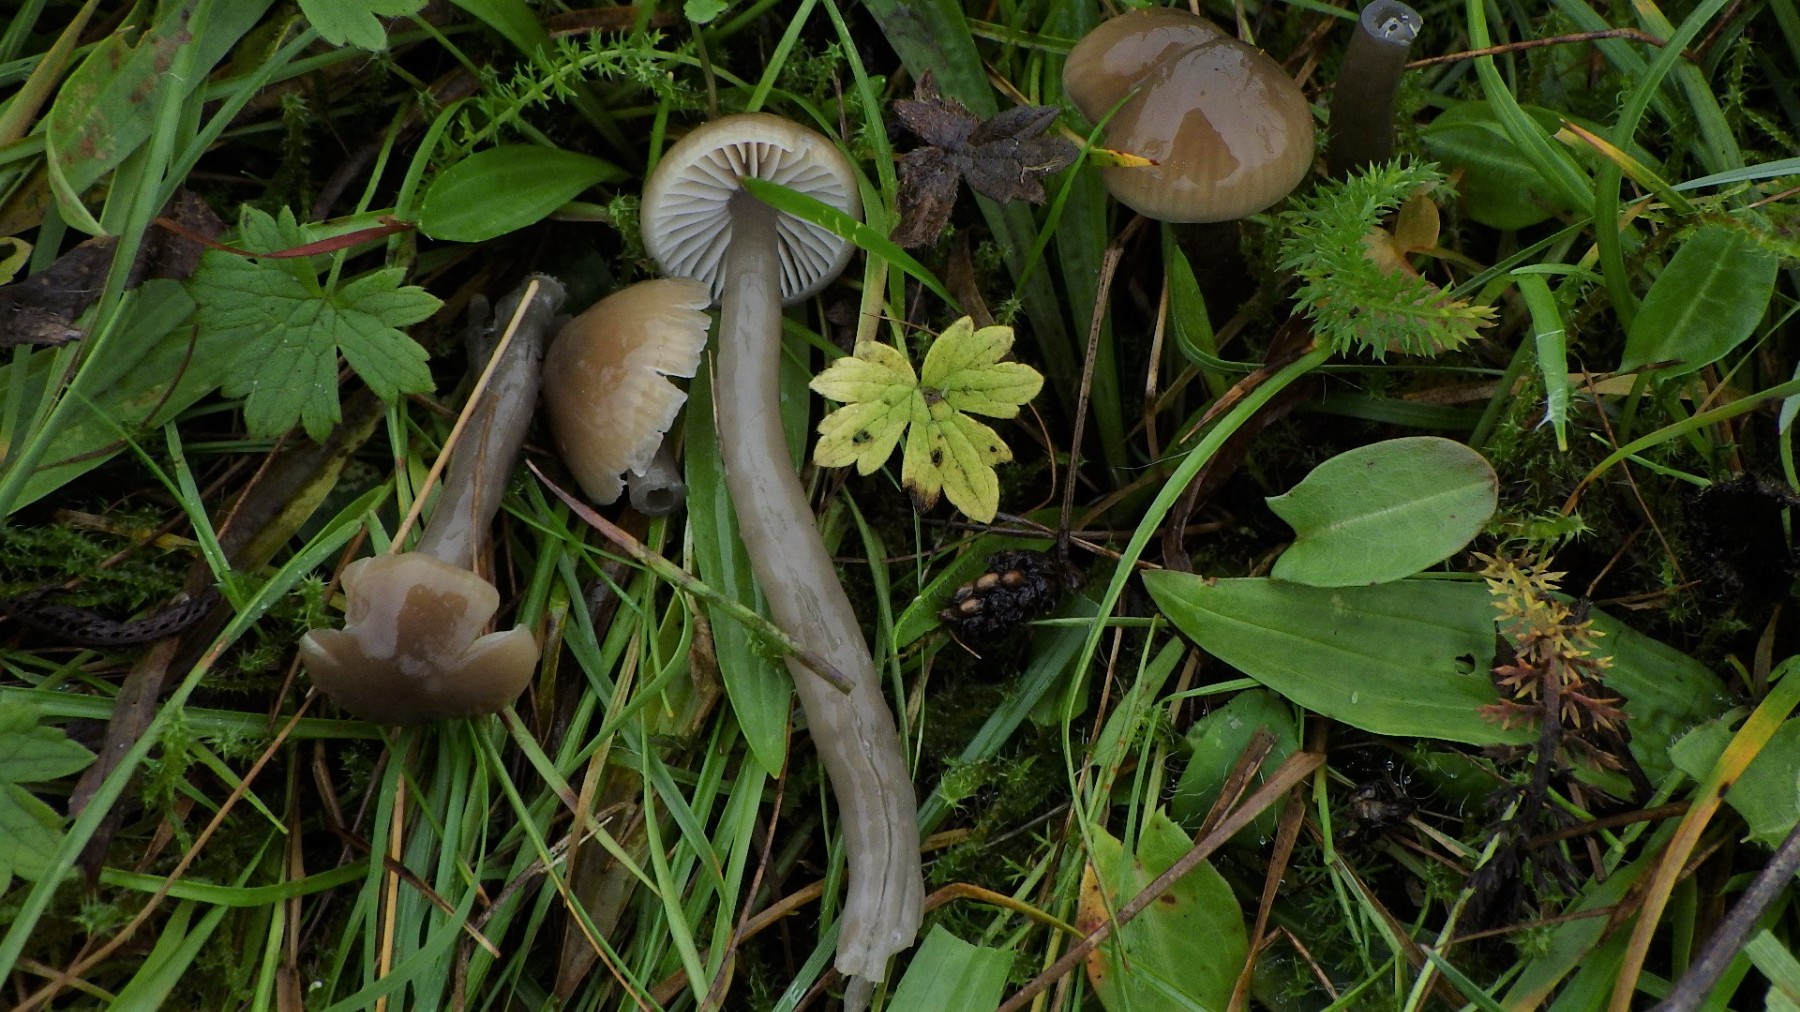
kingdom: Fungi
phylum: Basidiomycota
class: Agaricomycetes
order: Agaricales
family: Hygrophoraceae
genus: Gliophorus
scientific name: Gliophorus irrigatus
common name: slimet vokshat
